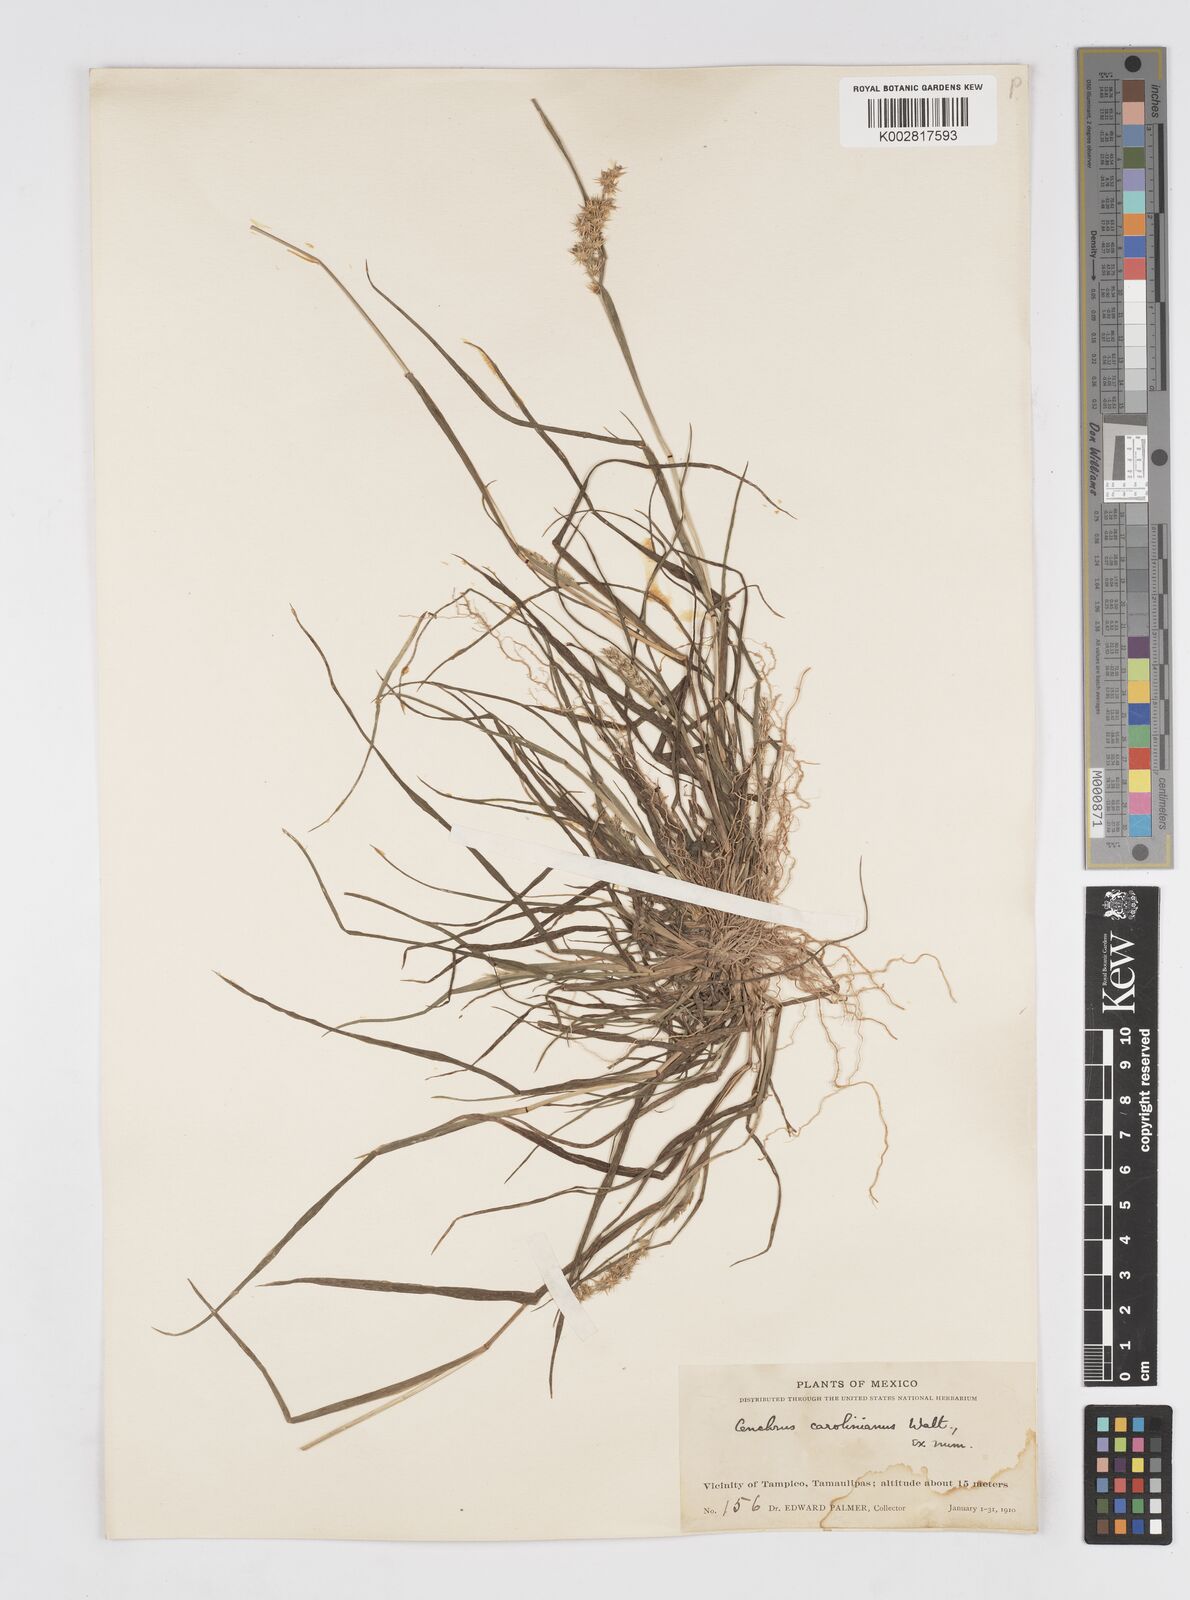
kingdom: Plantae
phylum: Tracheophyta
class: Liliopsida
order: Poales
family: Poaceae
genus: Cenchrus
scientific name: Cenchrus spinifex
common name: Coast sandbur
